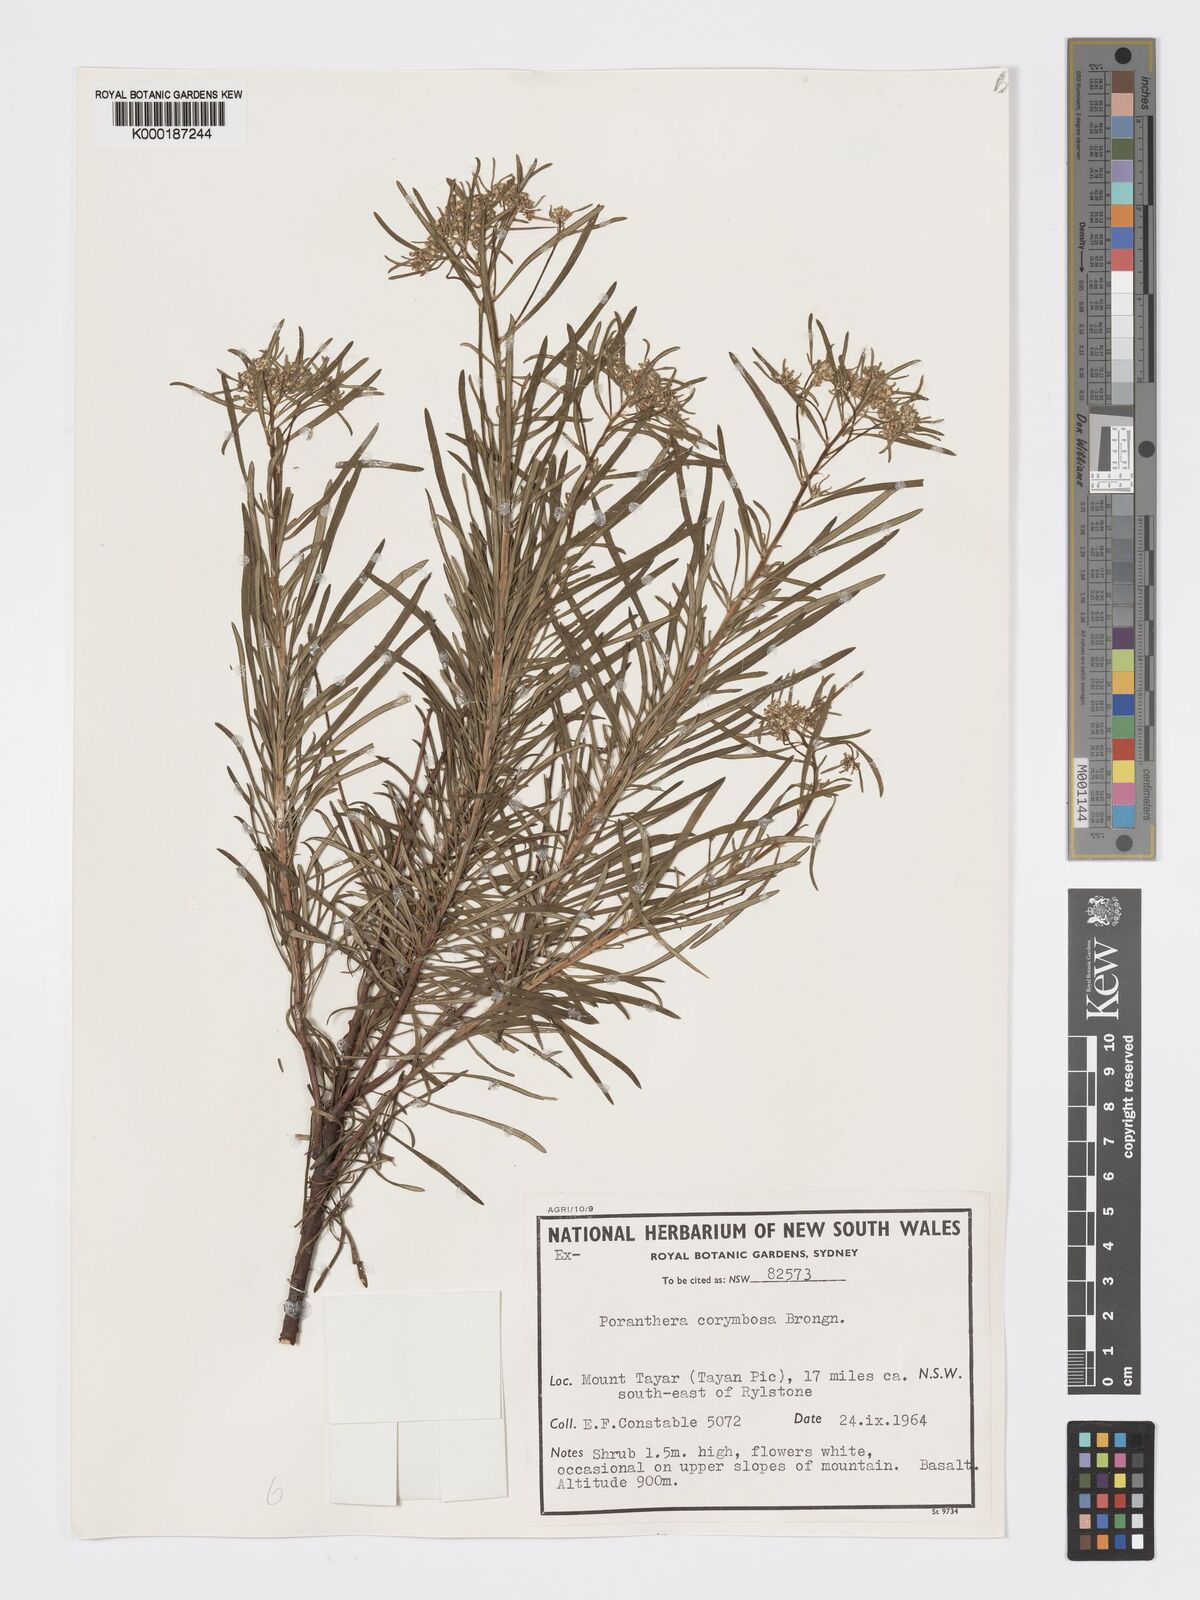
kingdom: Plantae
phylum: Tracheophyta
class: Magnoliopsida
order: Malpighiales
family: Phyllanthaceae
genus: Poranthera
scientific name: Poranthera corymbosa
